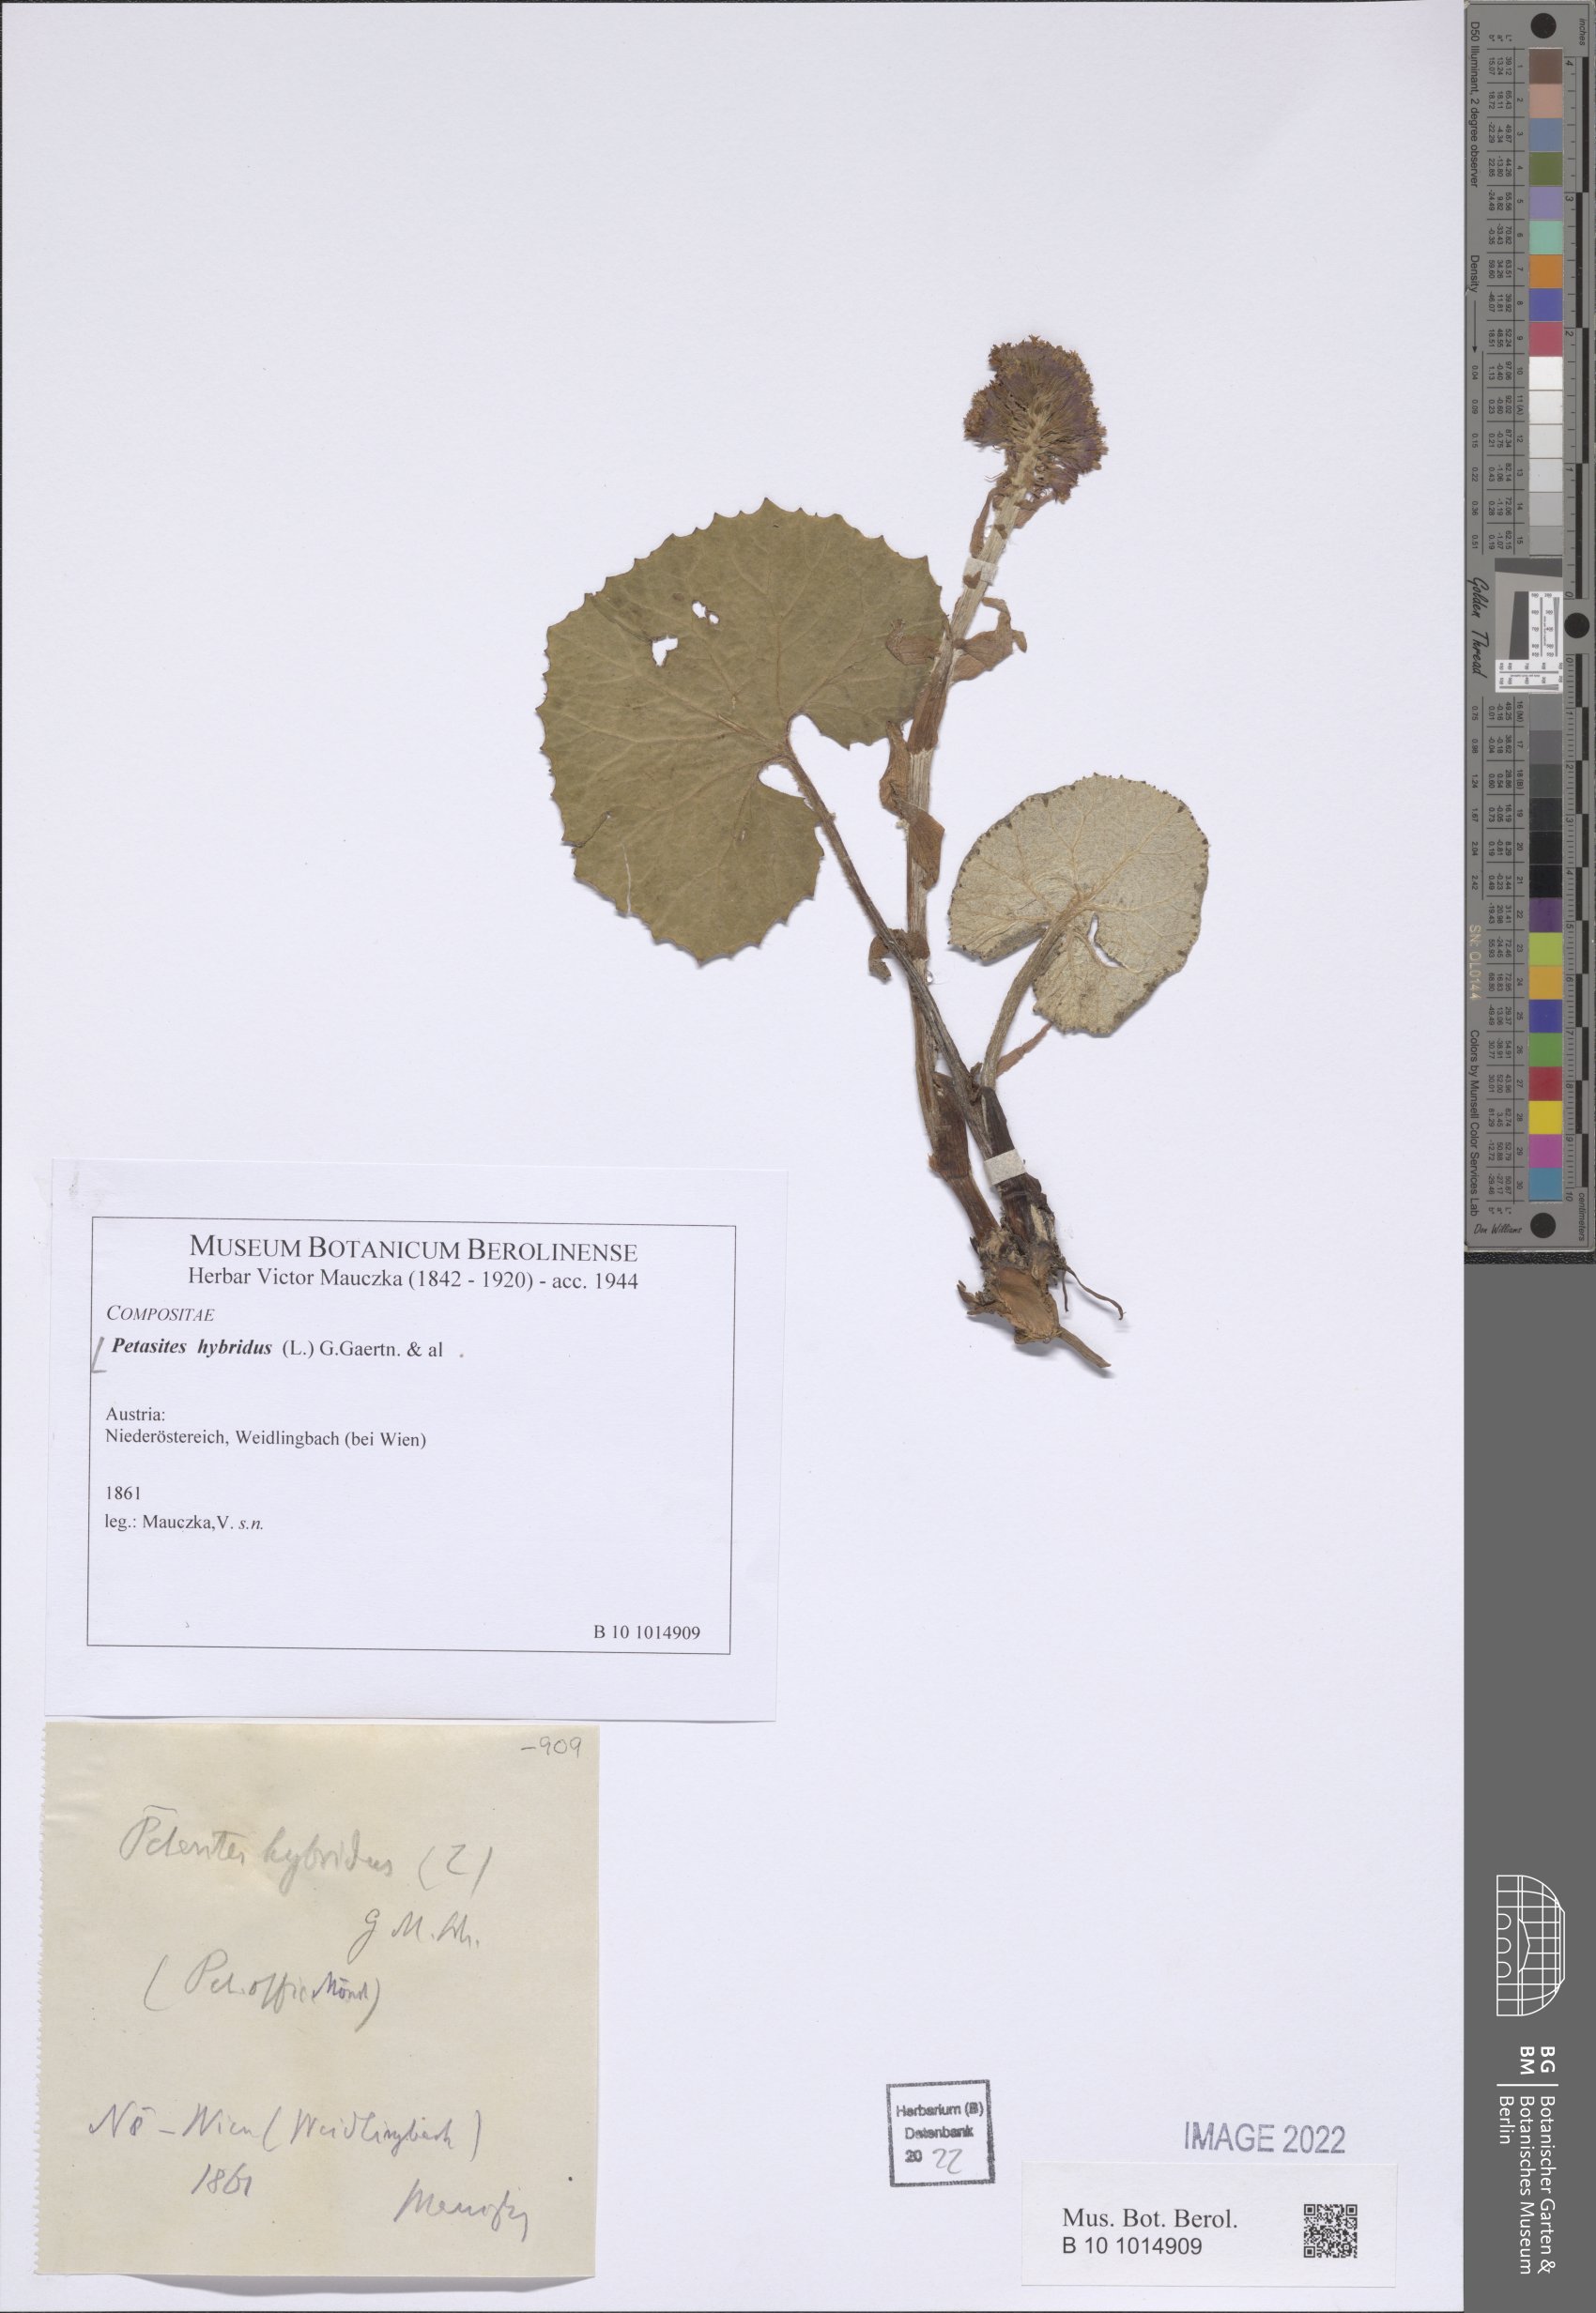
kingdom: Plantae
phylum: Tracheophyta
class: Magnoliopsida
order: Asterales
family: Asteraceae
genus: Petasites
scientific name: Petasites hybridus
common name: Butterbur
